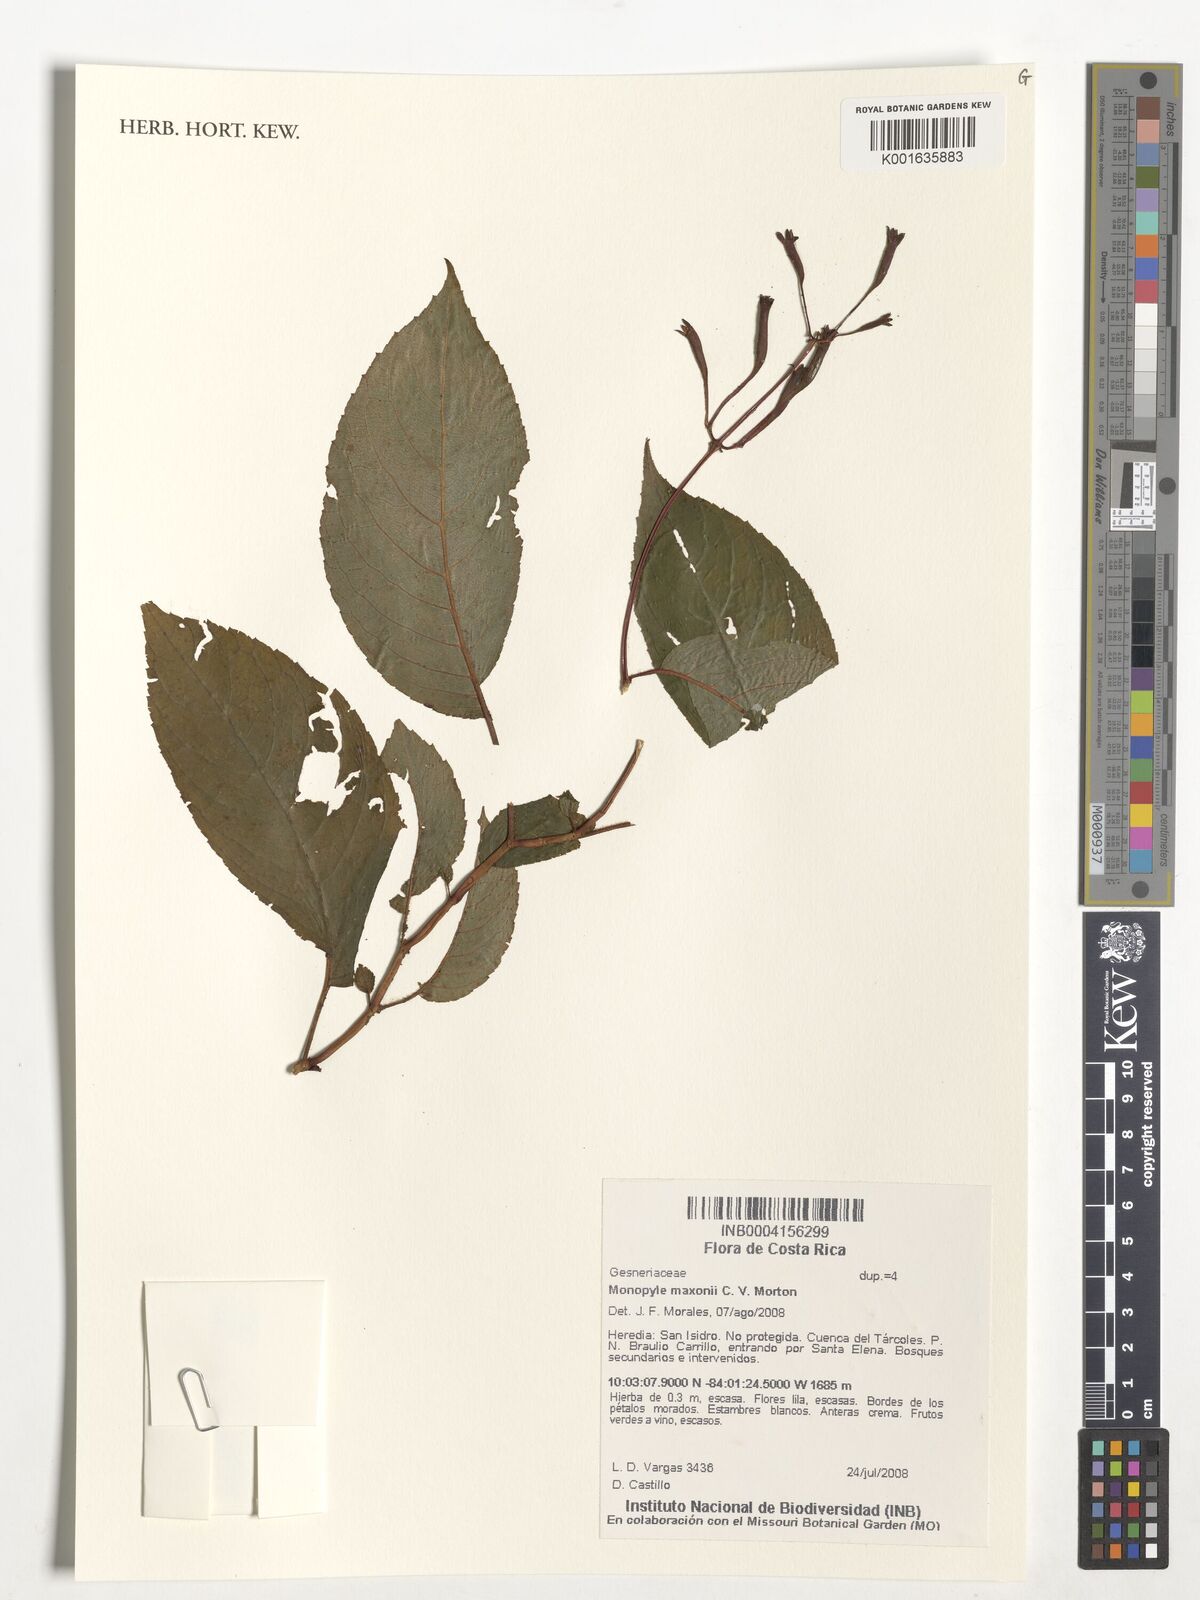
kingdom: Plantae
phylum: Tracheophyta
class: Magnoliopsida
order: Lamiales
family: Gesneriaceae
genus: Monopyle
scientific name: Monopyle maxonii
